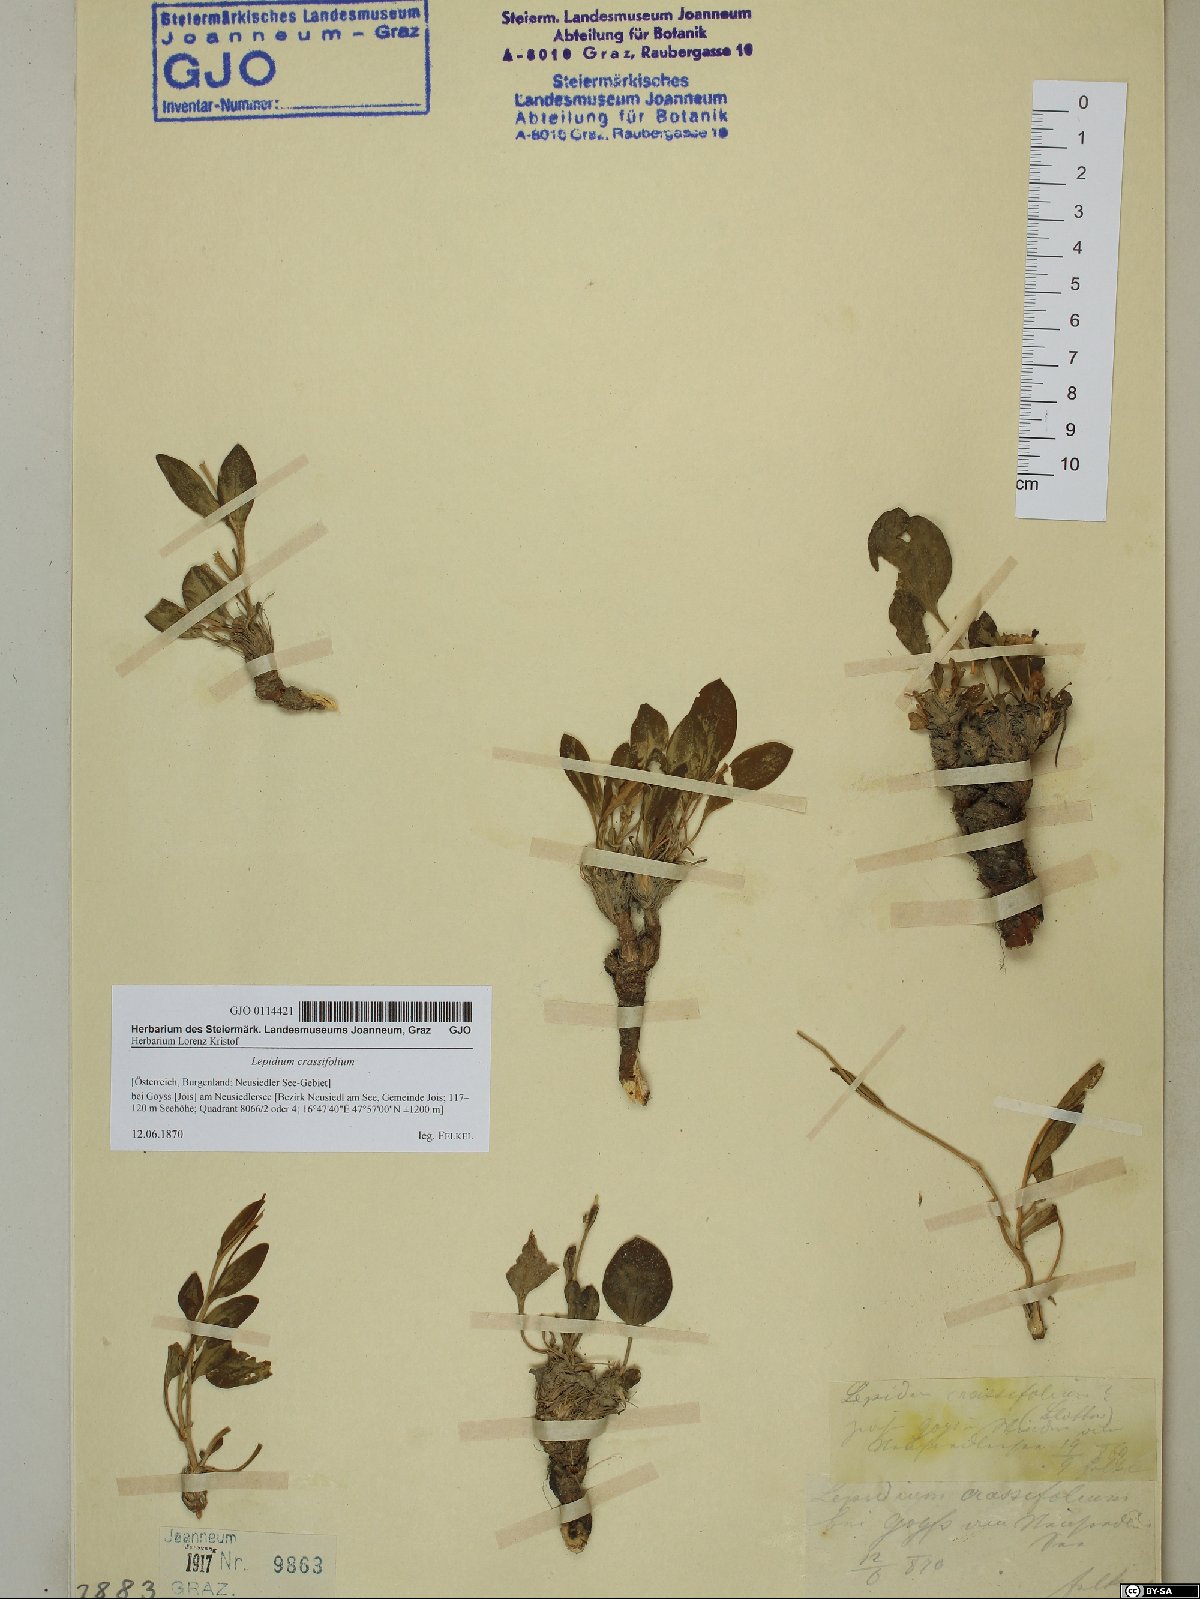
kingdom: Plantae
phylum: Tracheophyta
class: Magnoliopsida
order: Brassicales
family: Brassicaceae
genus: Lepidium
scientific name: Lepidium cartilagineum
